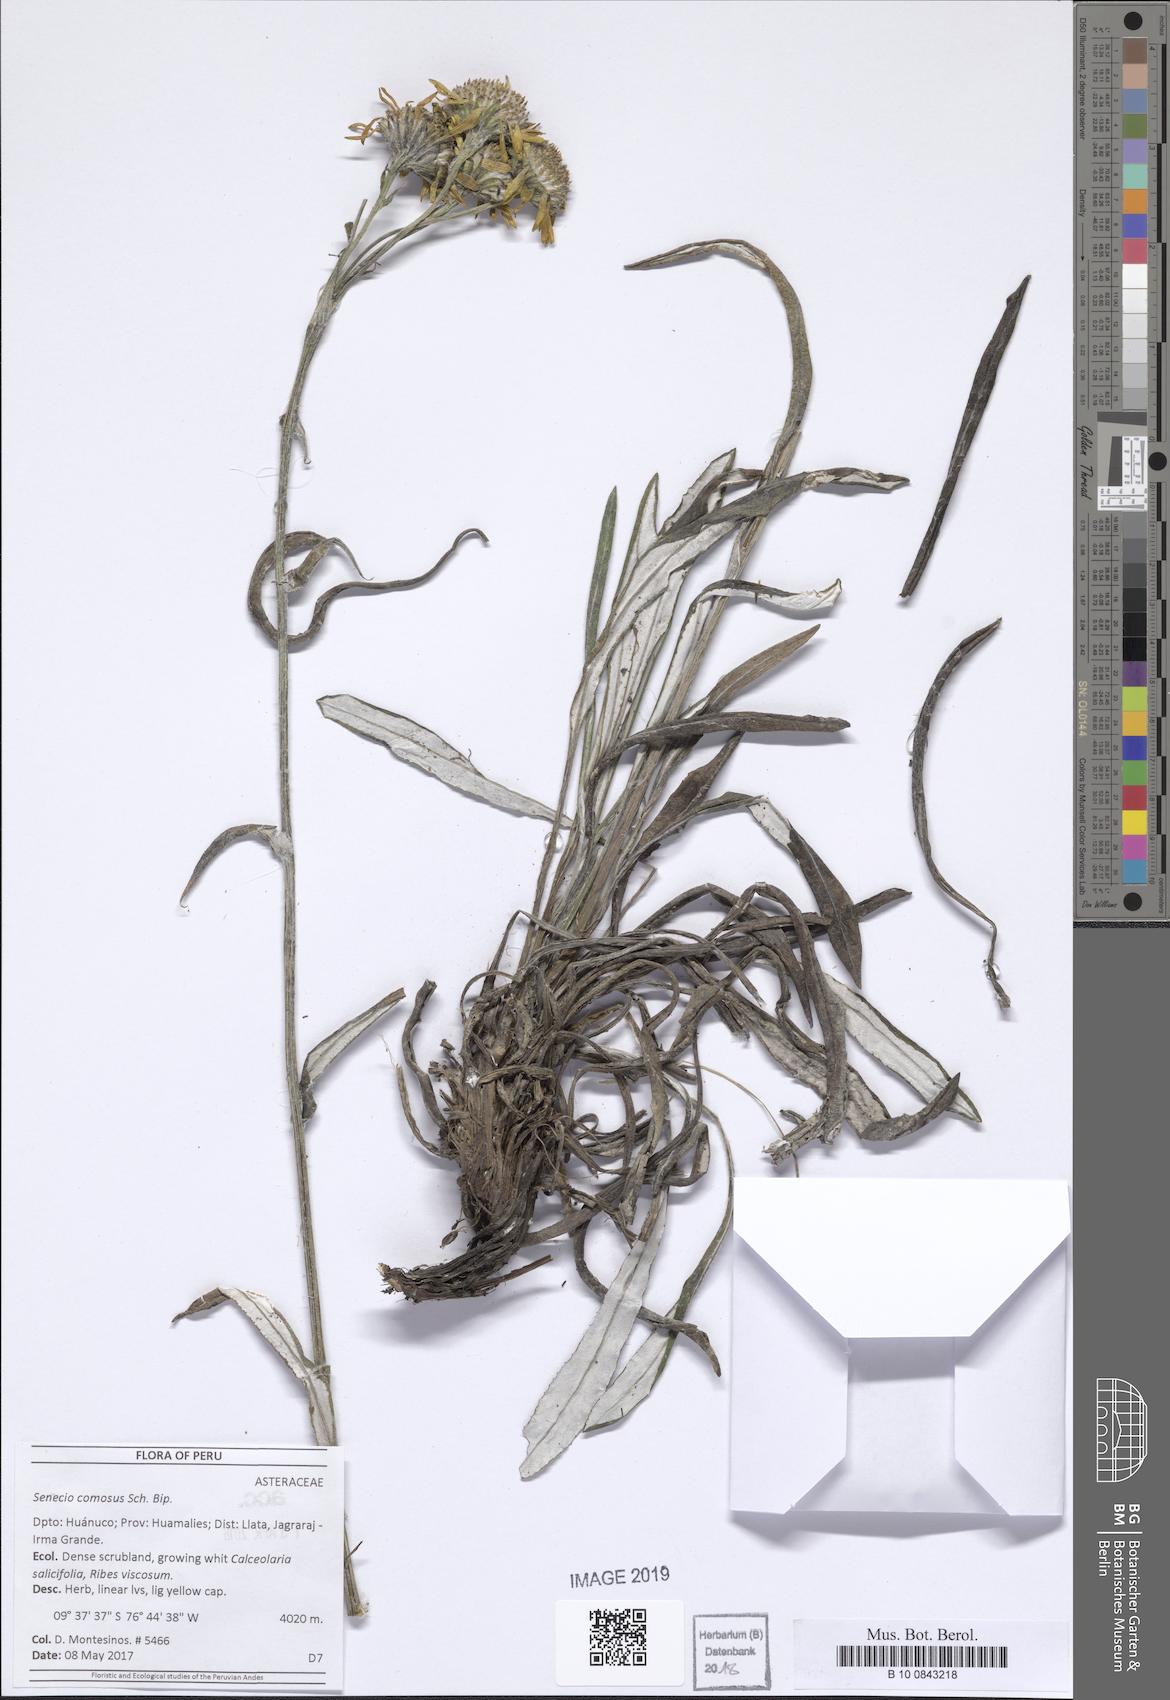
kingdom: Plantae
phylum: Tracheophyta
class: Magnoliopsida
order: Asterales
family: Asteraceae
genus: Senecio
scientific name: Senecio comosus
